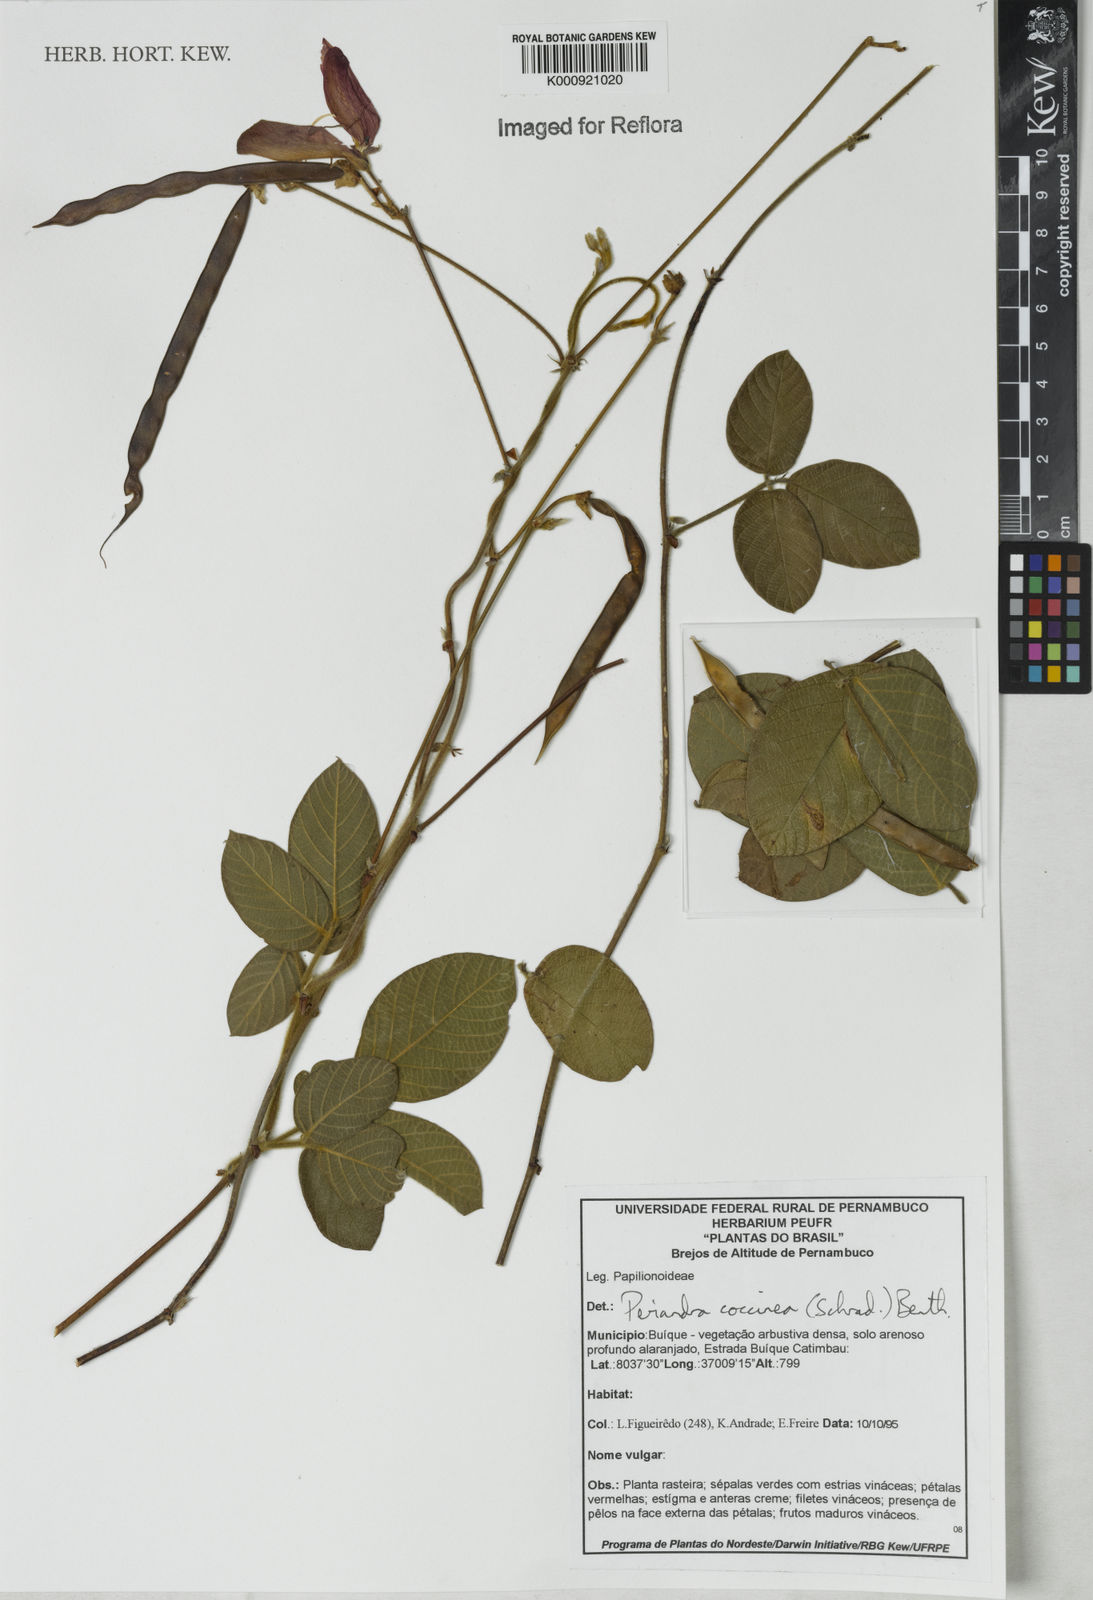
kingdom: Plantae
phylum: Tracheophyta
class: Magnoliopsida
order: Fabales
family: Fabaceae
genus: Periandra
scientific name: Periandra coccinea
